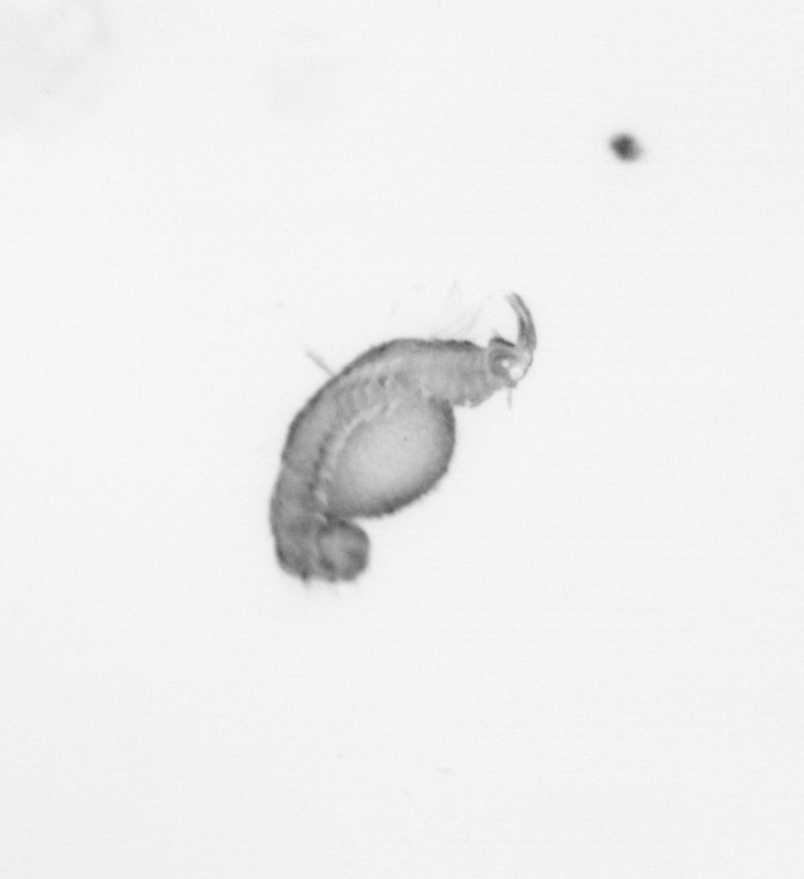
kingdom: Animalia
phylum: Annelida
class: Polychaeta
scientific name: Polychaeta
